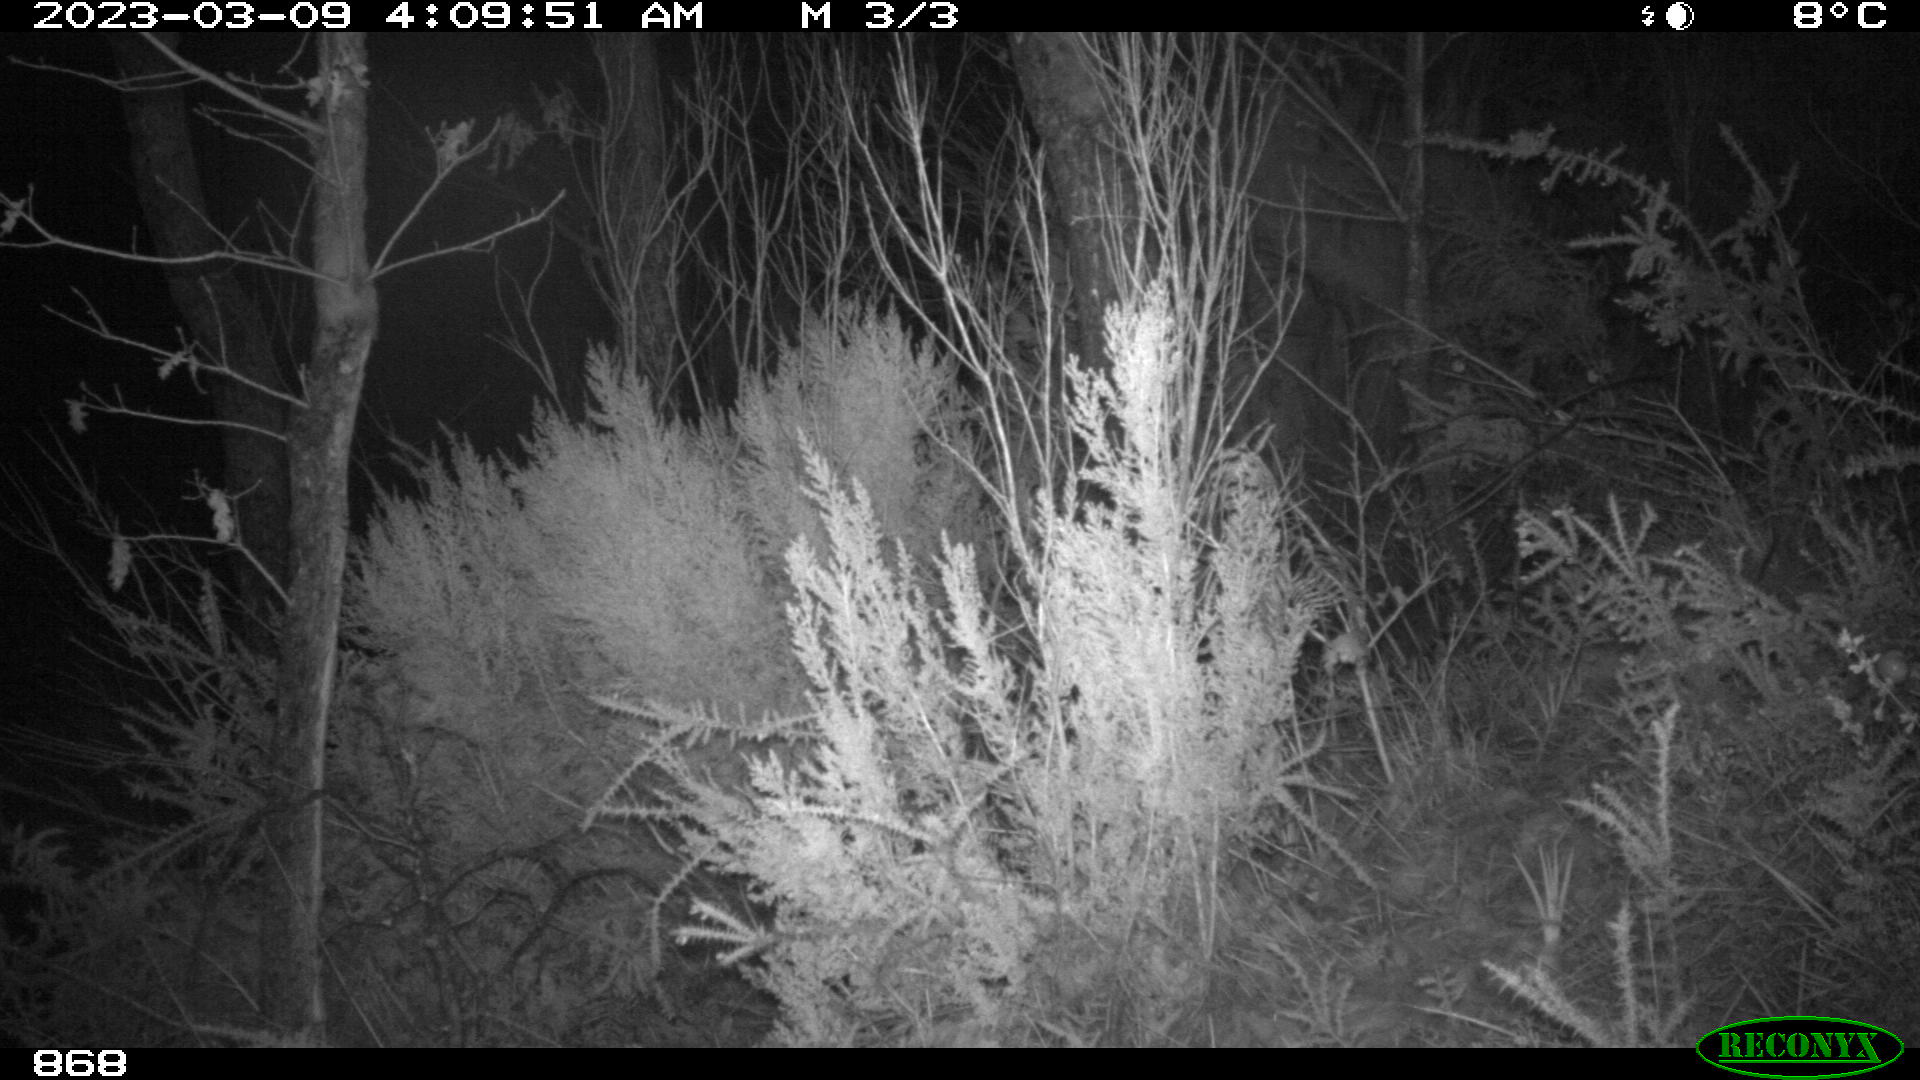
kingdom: Animalia
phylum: Chordata
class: Mammalia
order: Artiodactyla
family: Suidae
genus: Sus
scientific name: Sus scrofa
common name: Wild boar
